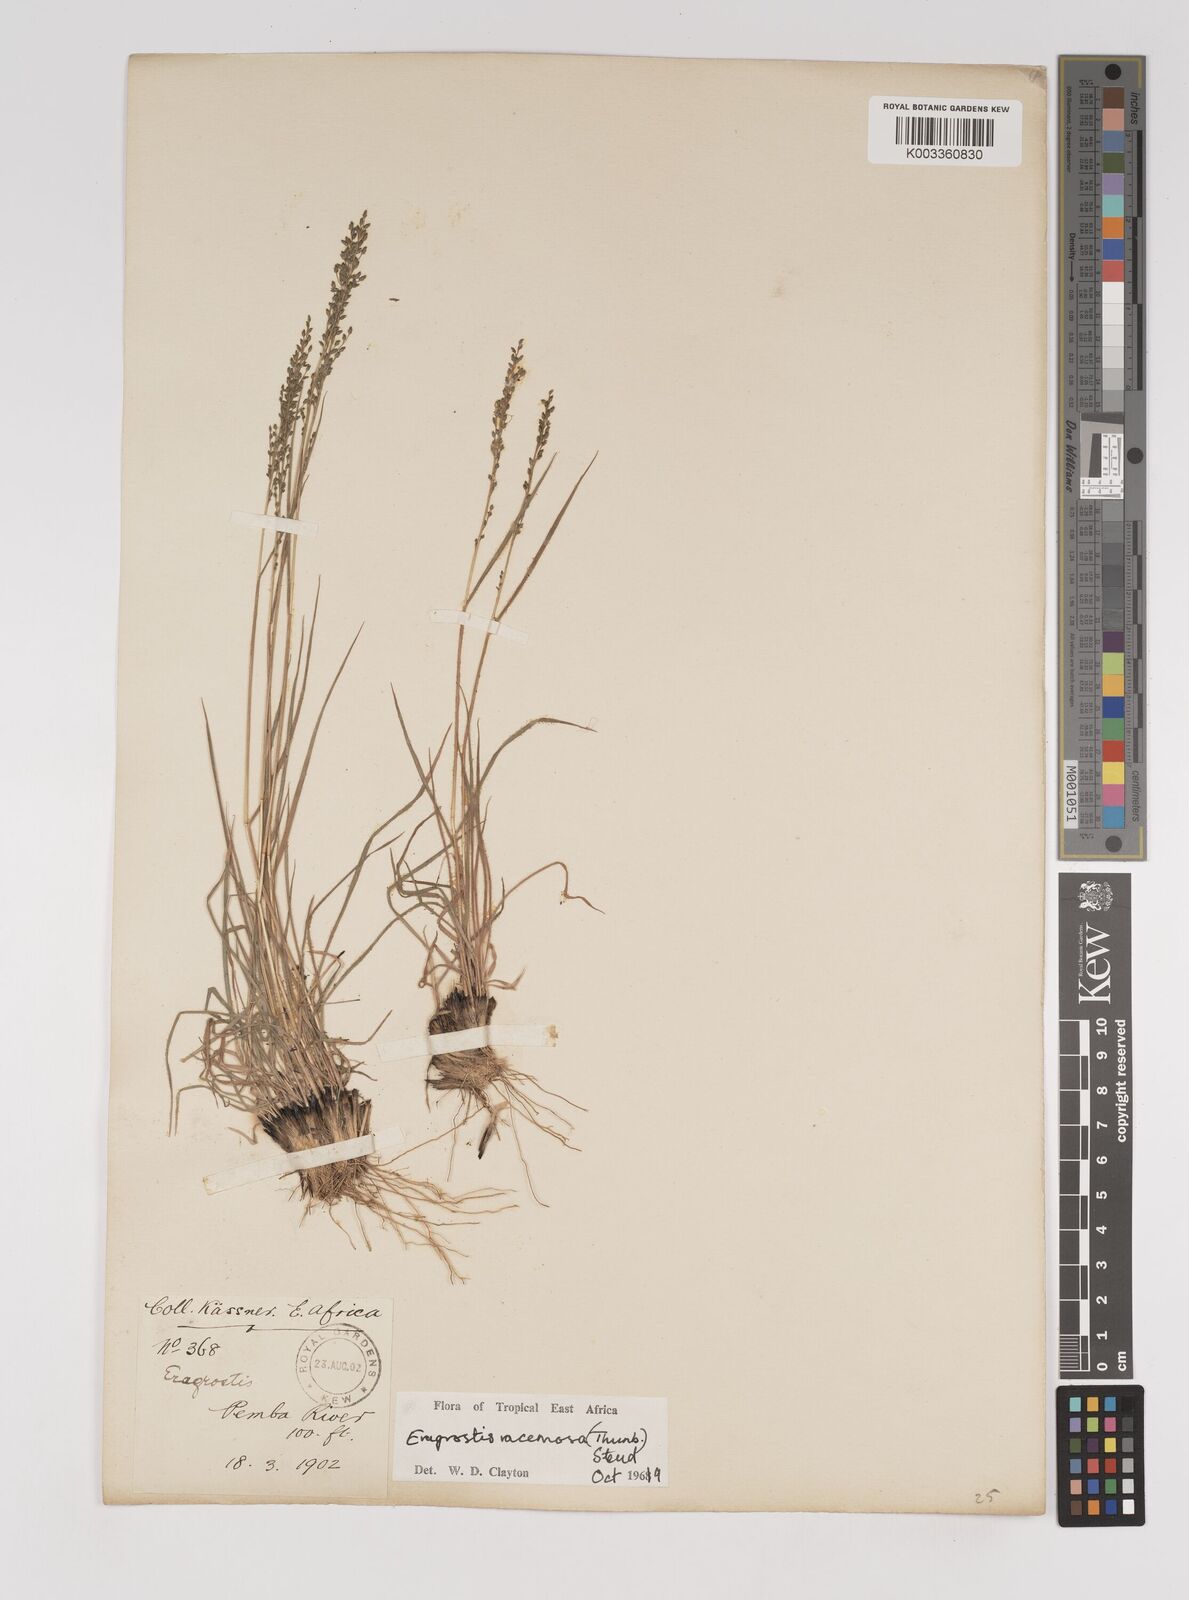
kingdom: Plantae
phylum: Tracheophyta
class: Liliopsida
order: Poales
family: Poaceae
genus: Eragrostis
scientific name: Eragrostis racemosa
